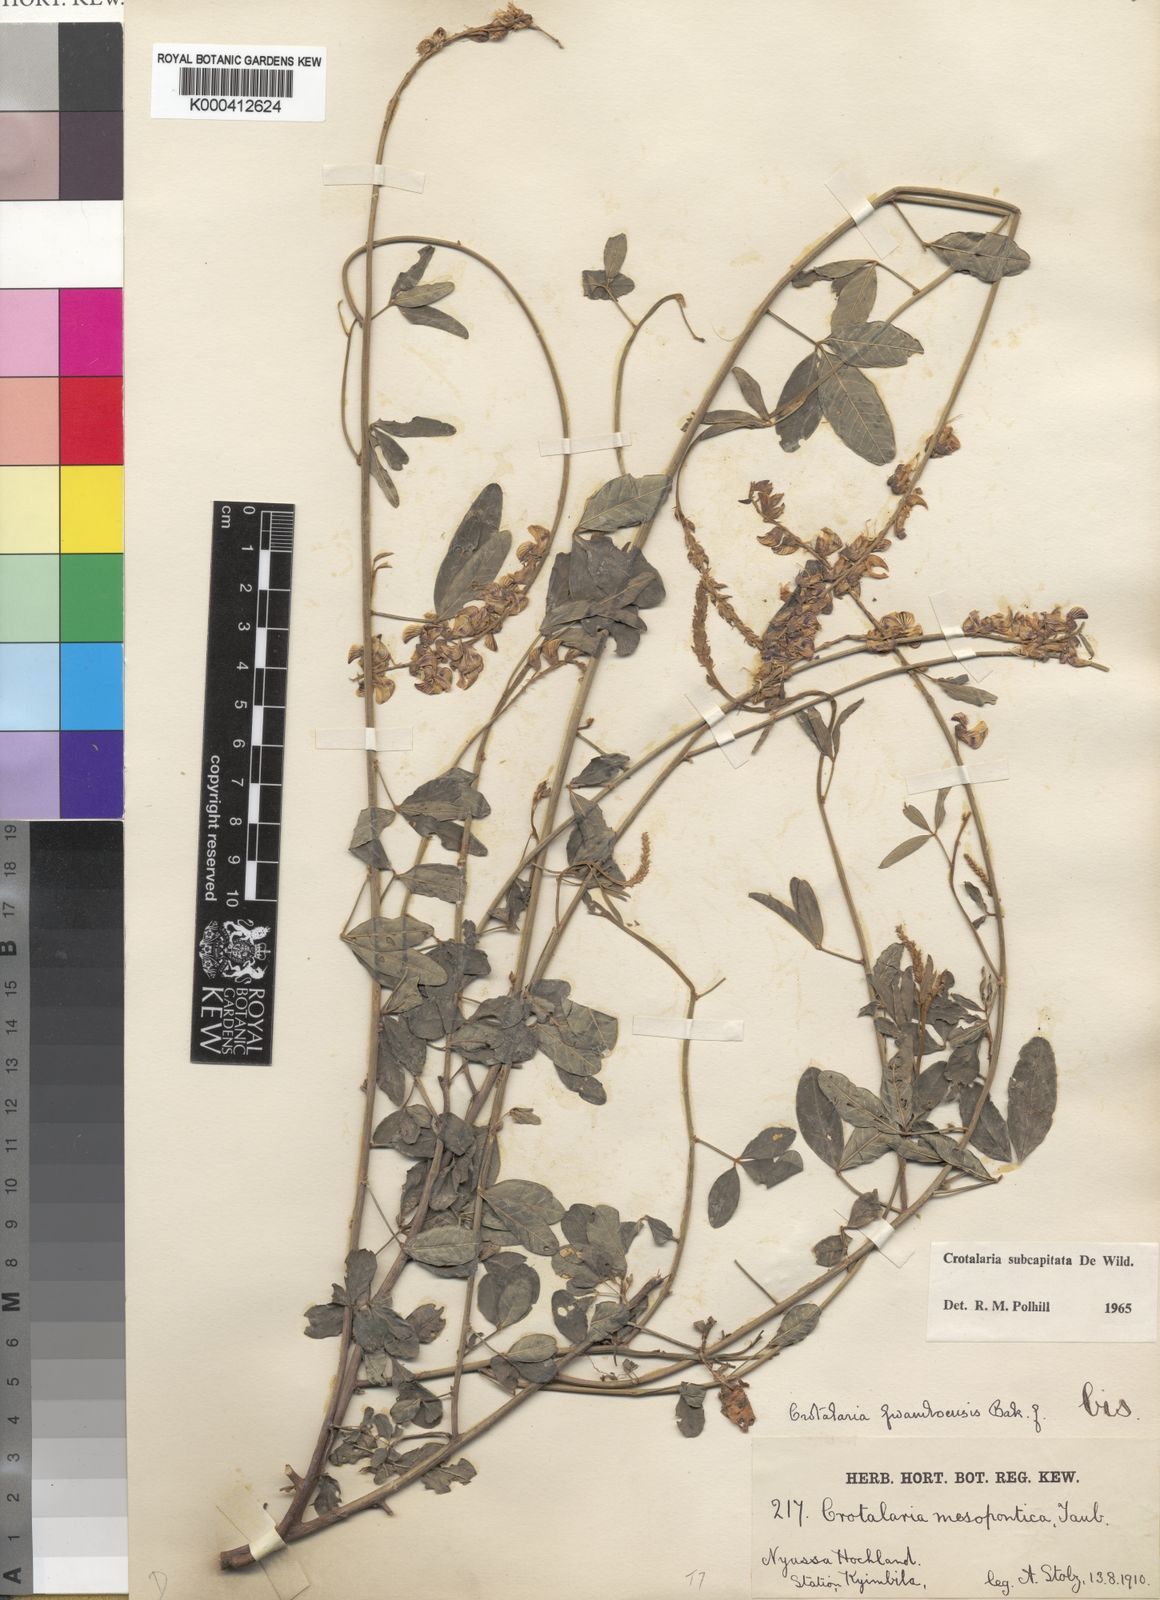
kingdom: Plantae
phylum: Tracheophyta
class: Magnoliopsida
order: Fabales
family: Fabaceae
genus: Crotalaria
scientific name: Crotalaria subcapitata
